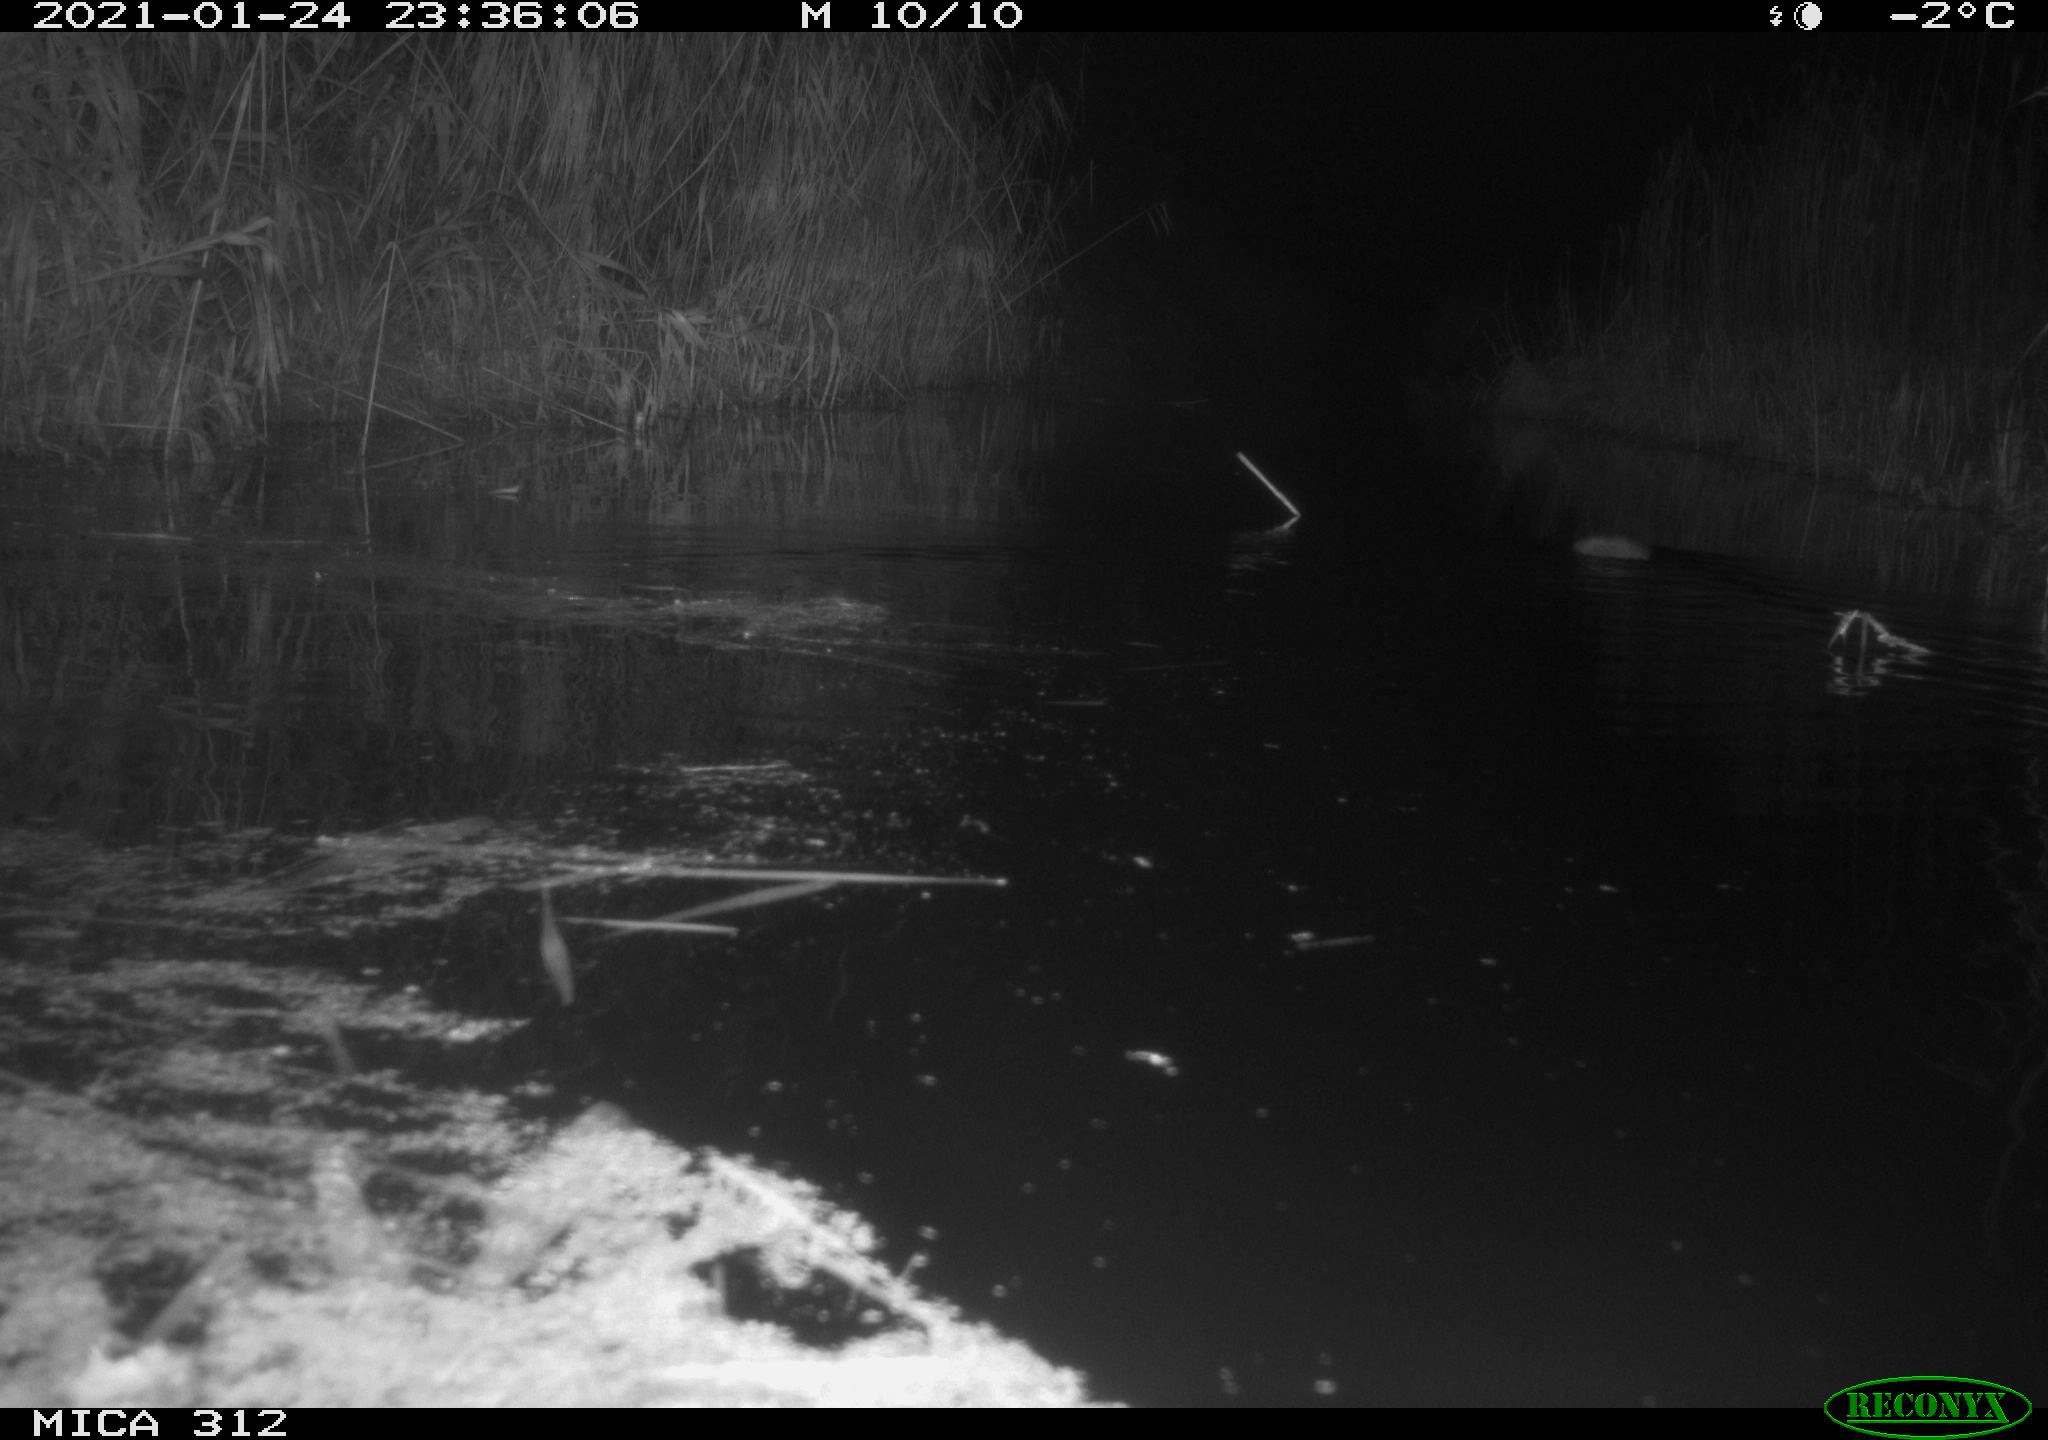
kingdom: Animalia
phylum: Chordata
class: Mammalia
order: Rodentia
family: Muridae
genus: Rattus
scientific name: Rattus norvegicus
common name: Brown rat
